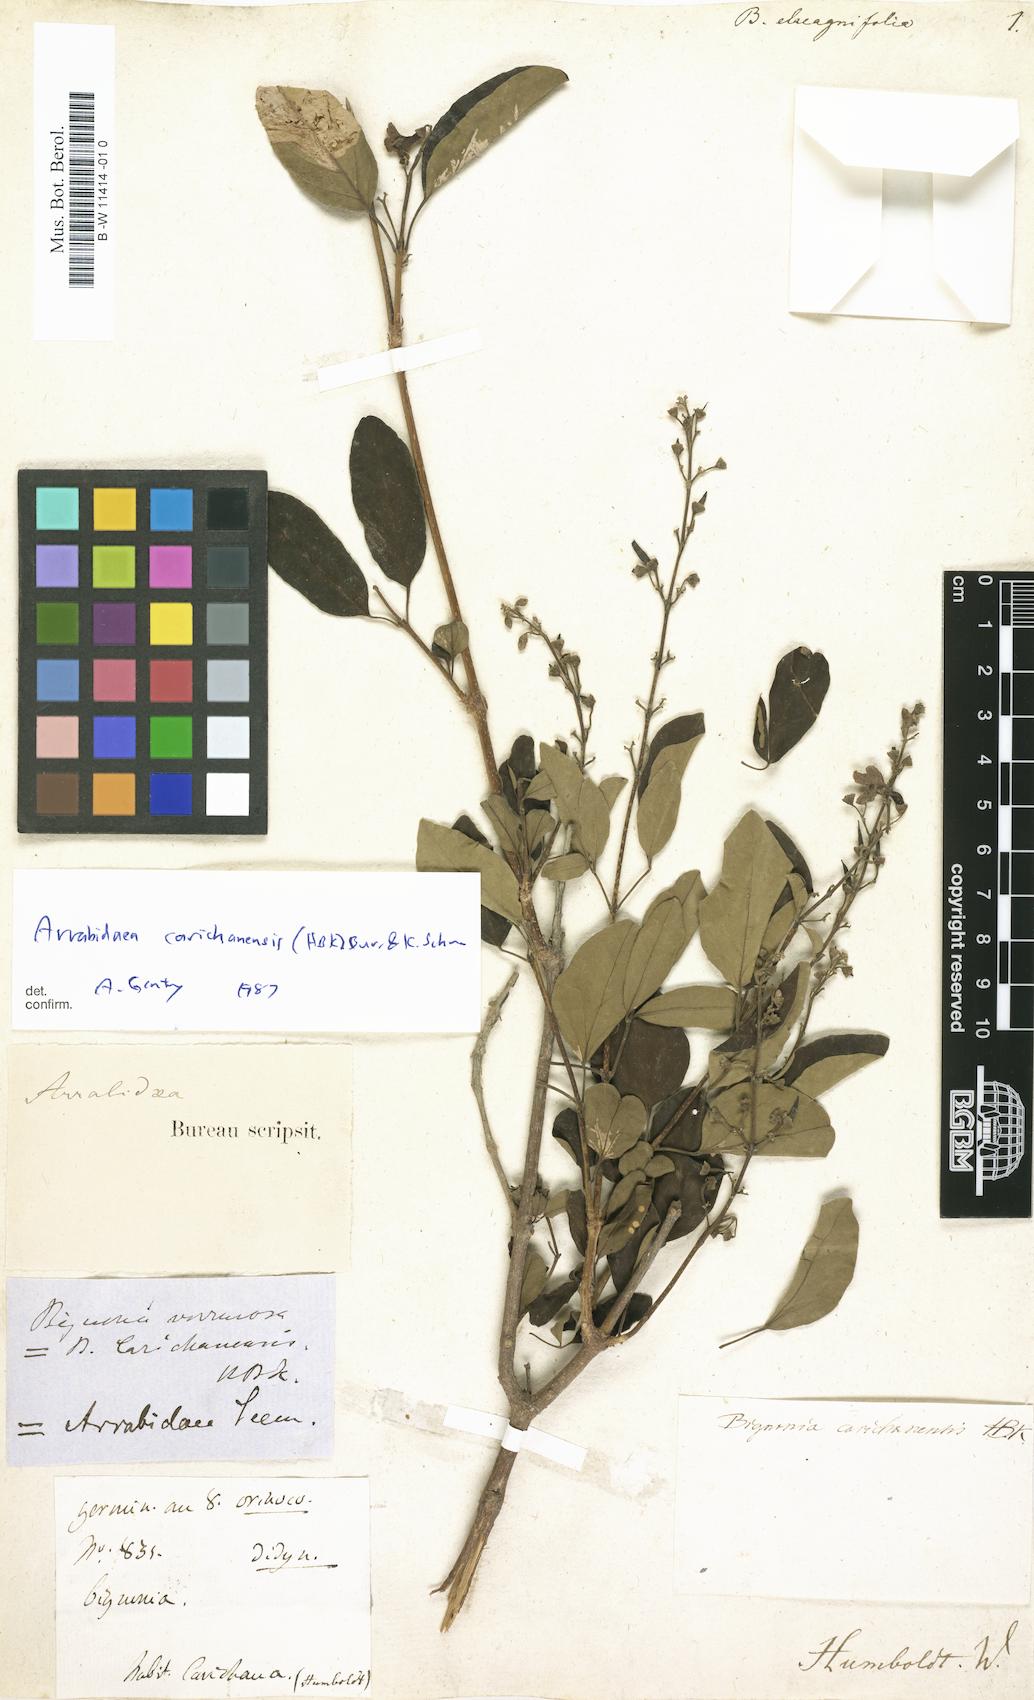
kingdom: Plantae
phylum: Tracheophyta
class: Magnoliopsida
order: Lamiales
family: Bignoniaceae
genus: Bignonia
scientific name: Bignonia
